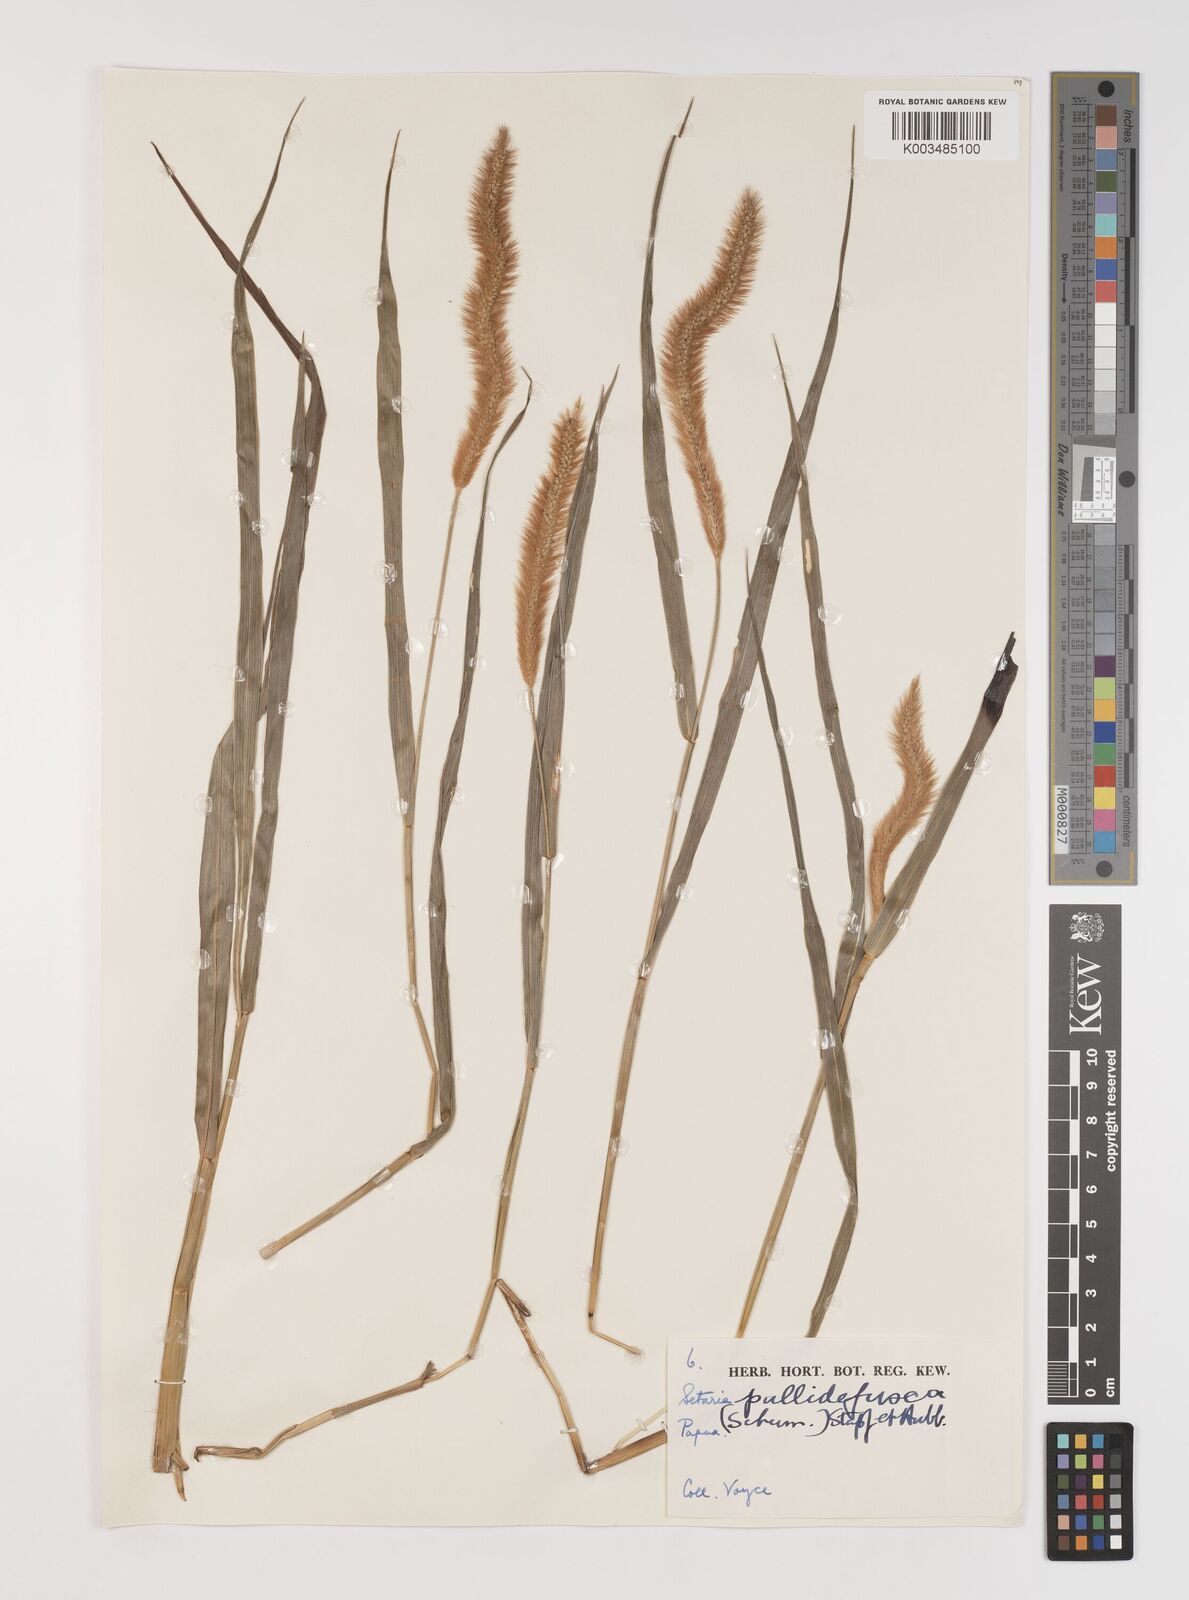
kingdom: Plantae
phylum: Tracheophyta
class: Liliopsida
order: Poales
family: Poaceae
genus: Setaria
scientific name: Setaria pumila
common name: Yellow bristle-grass
